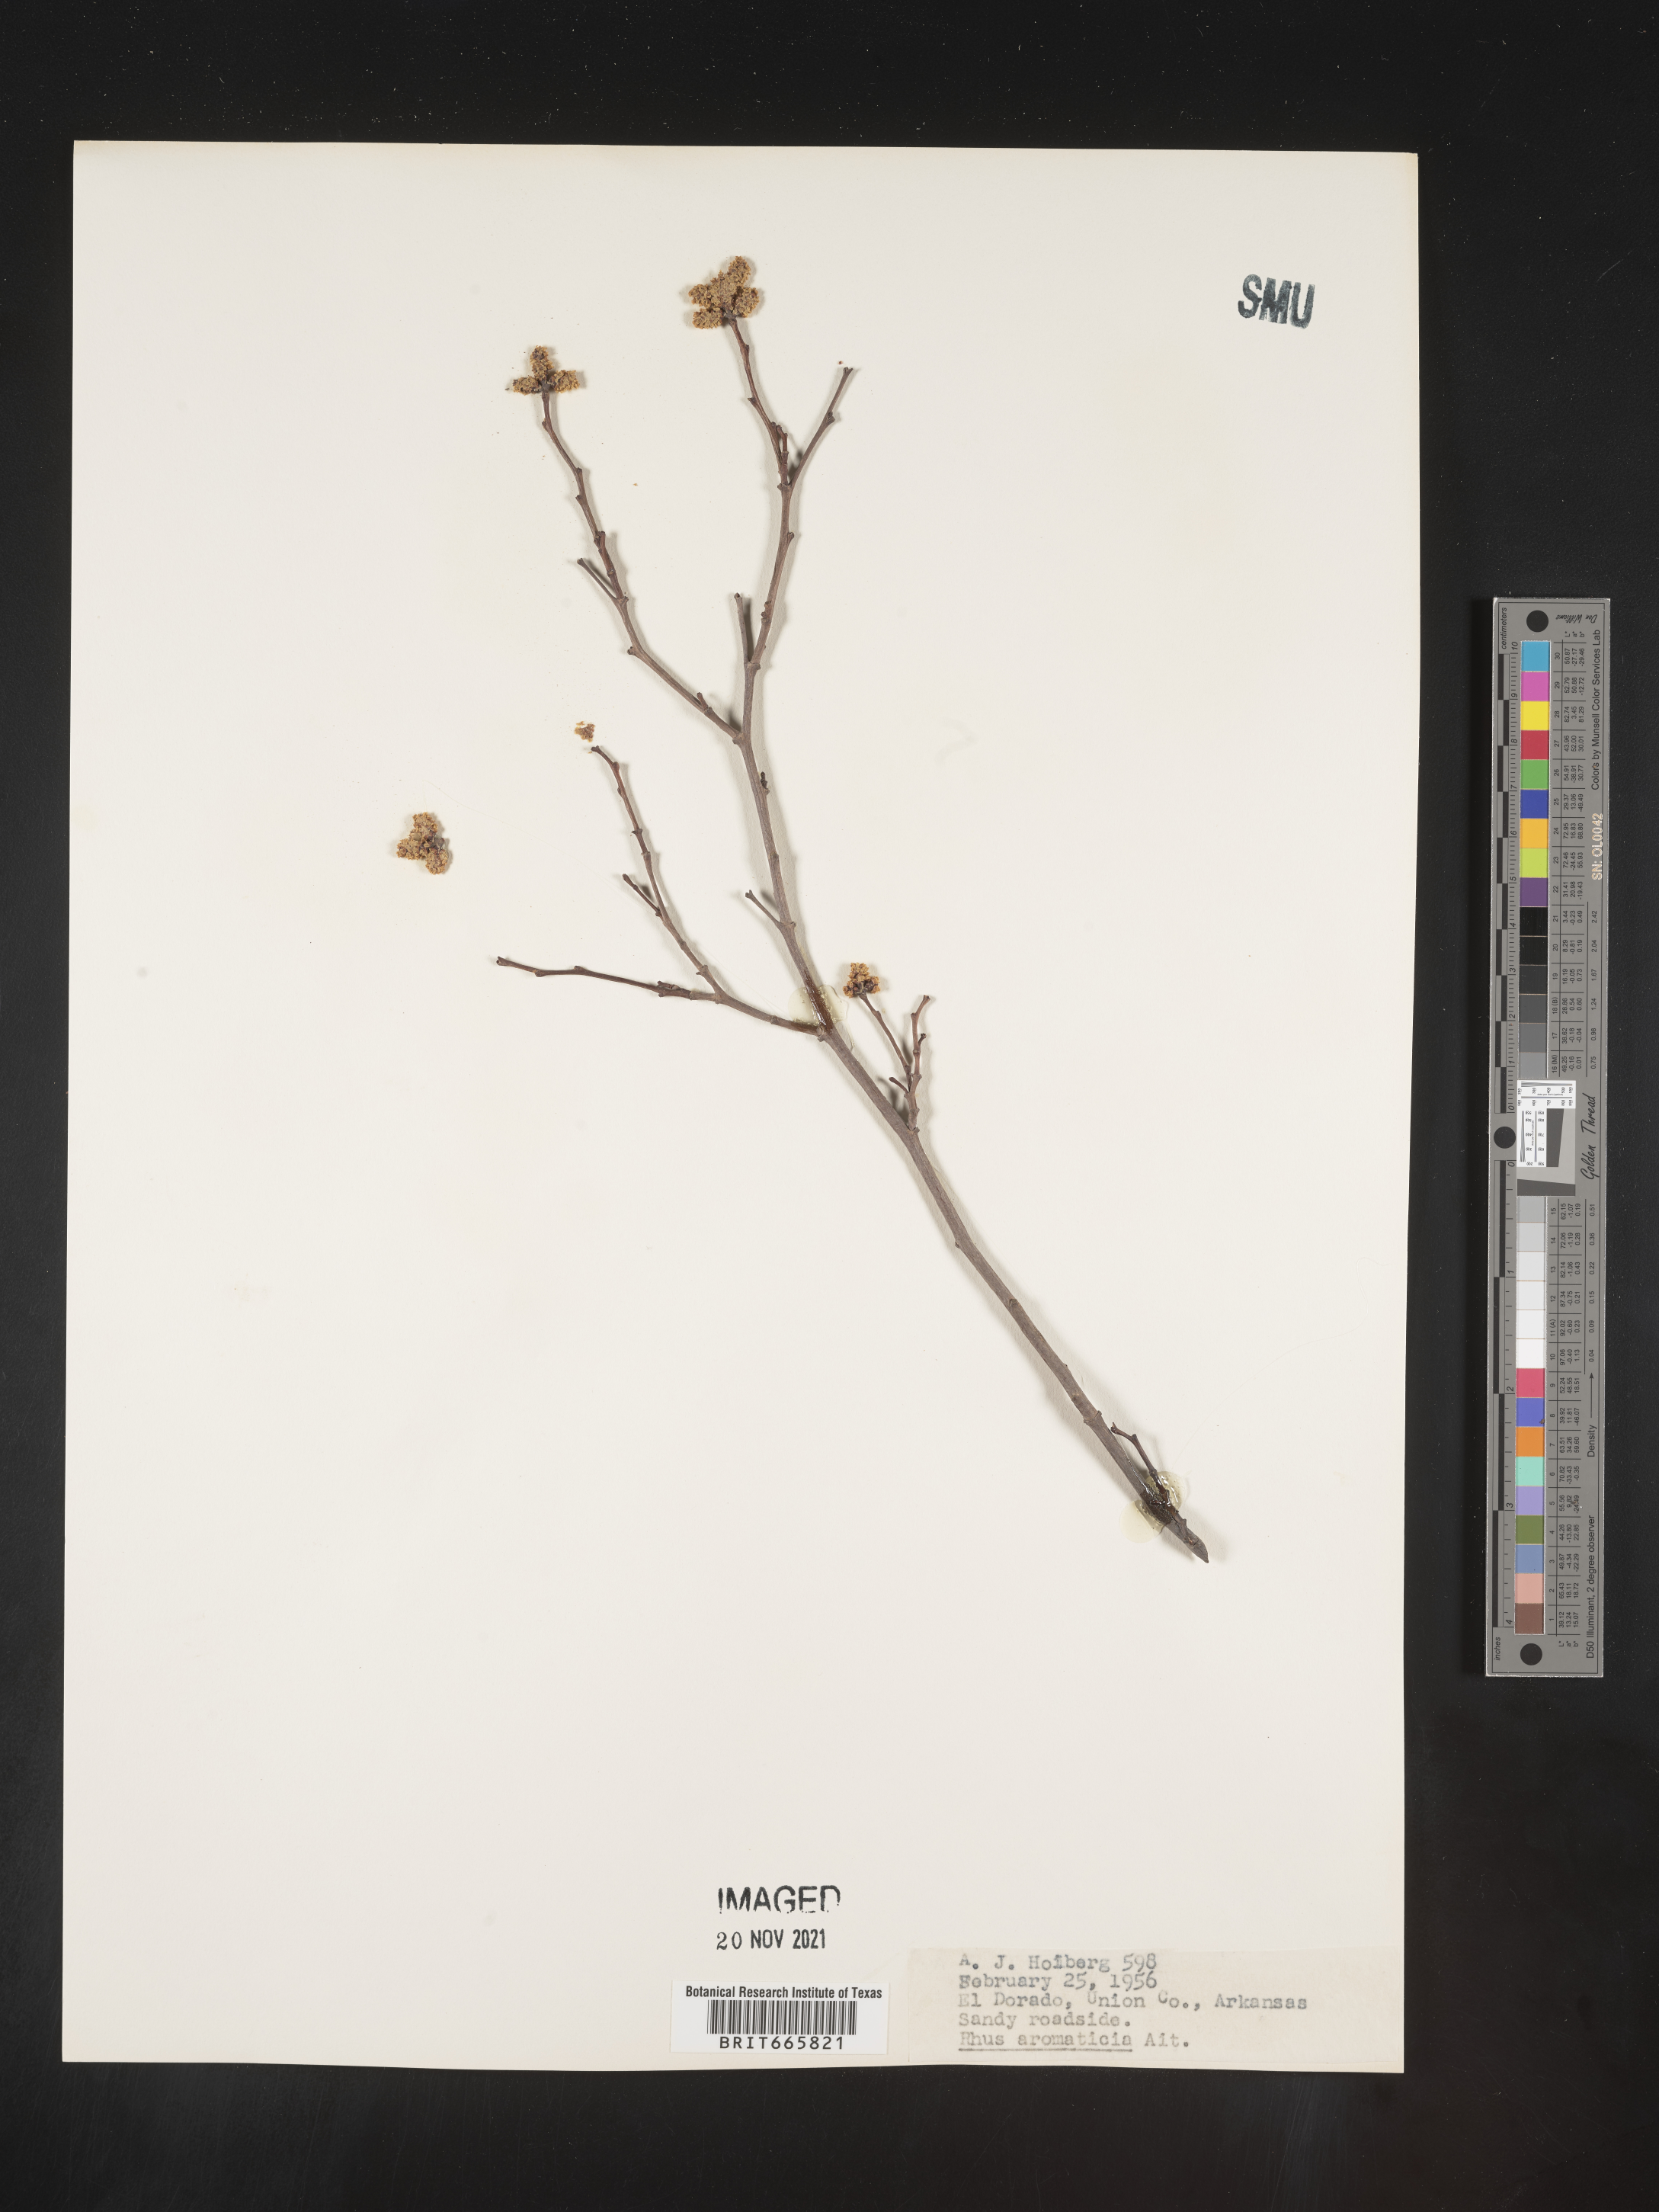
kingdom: Plantae
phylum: Tracheophyta
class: Magnoliopsida
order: Sapindales
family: Anacardiaceae
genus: Rhus
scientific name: Rhus aromatica
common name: Aromatic sumac
